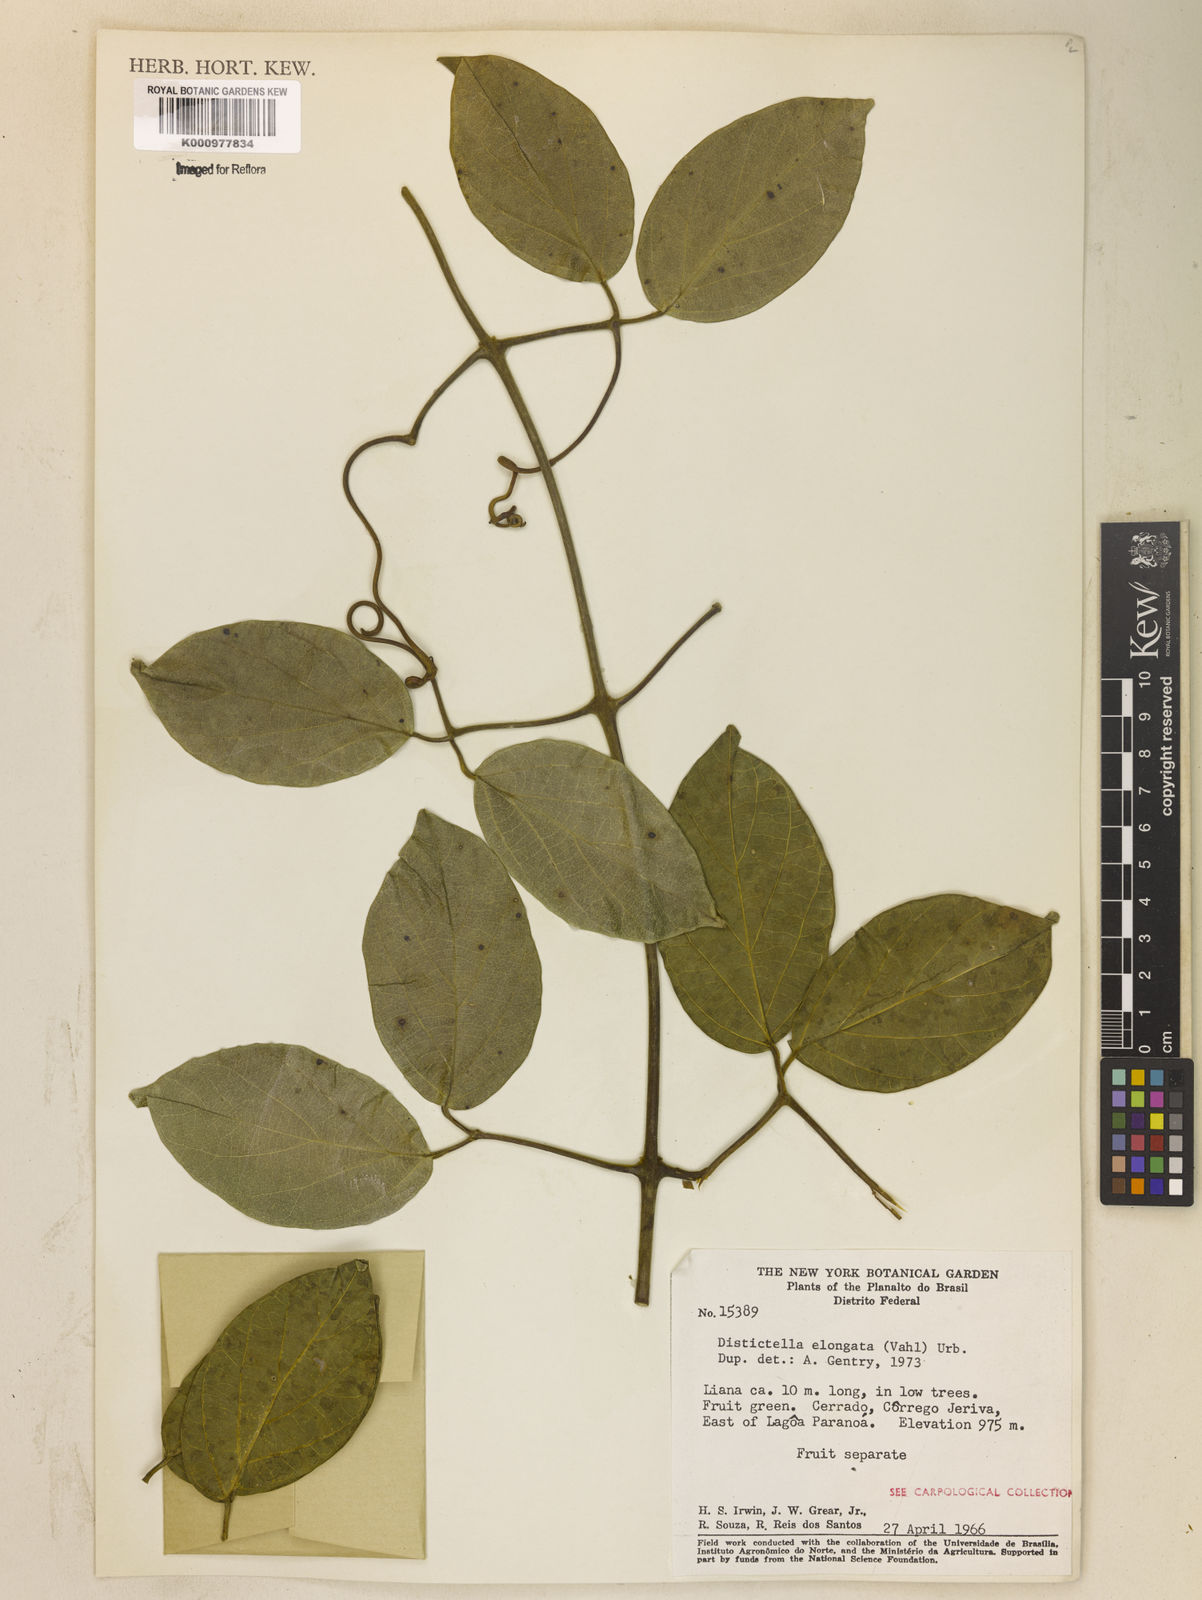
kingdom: Plantae
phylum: Tracheophyta
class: Magnoliopsida
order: Lamiales
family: Bignoniaceae
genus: Amphilophium
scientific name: Amphilophium elongatum
